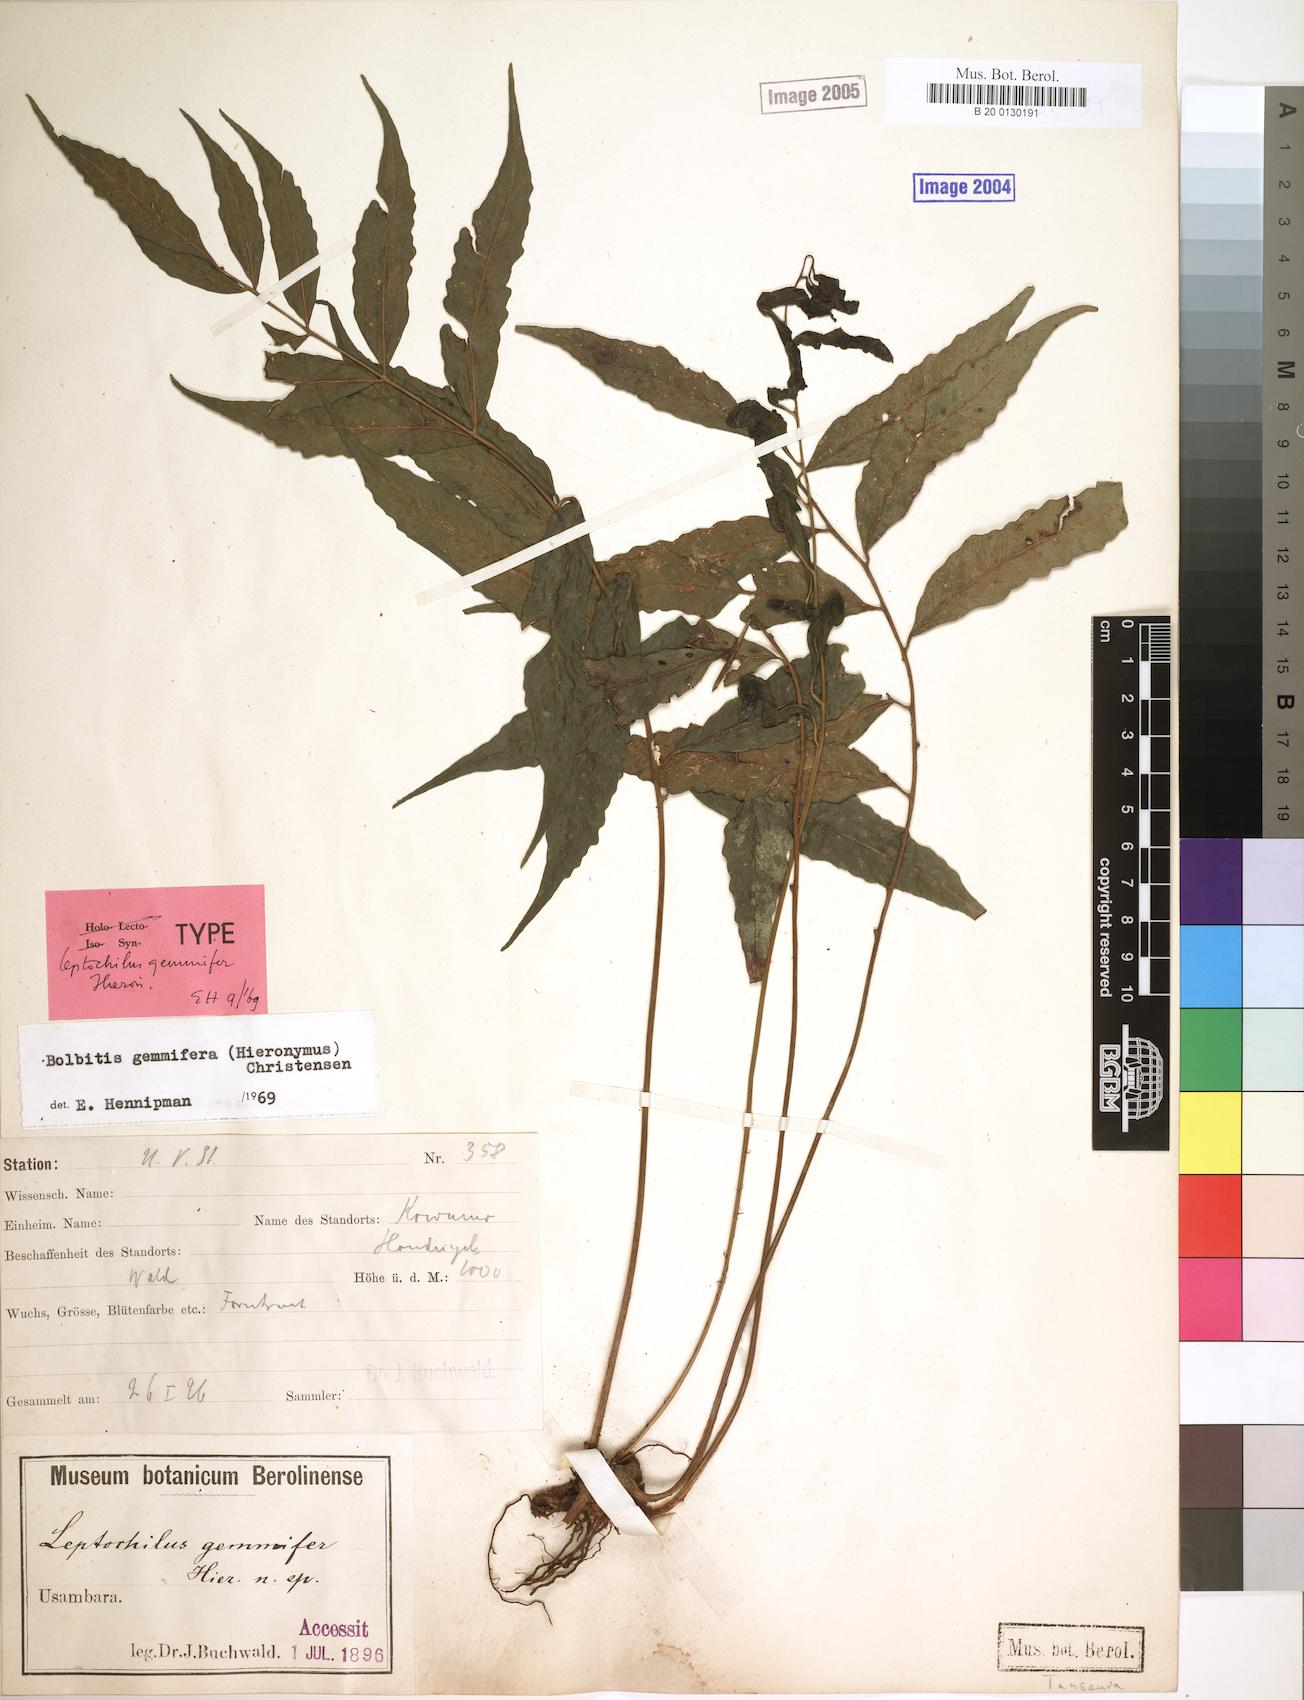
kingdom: Plantae
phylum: Tracheophyta
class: Polypodiopsida
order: Polypodiales
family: Dryopteridaceae
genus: Bolbitis
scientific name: Bolbitis gemmifer
